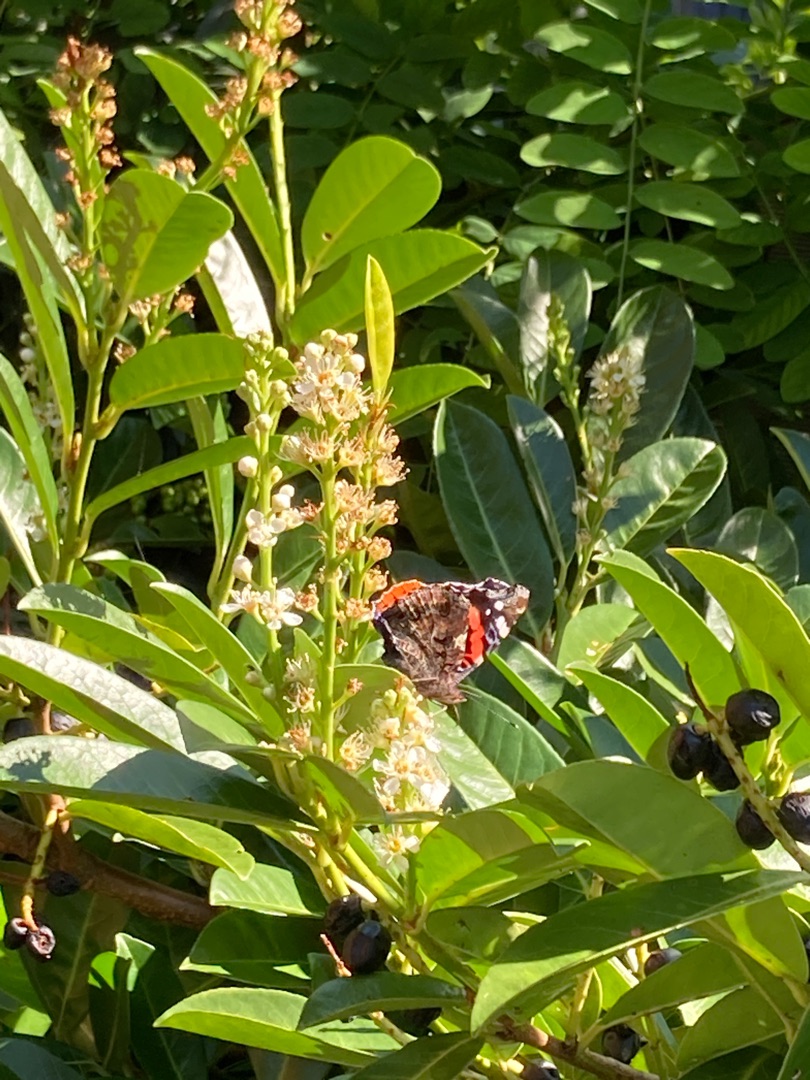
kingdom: Animalia
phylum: Arthropoda
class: Insecta
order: Lepidoptera
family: Nymphalidae
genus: Vanessa
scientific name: Vanessa atalanta
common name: Admiral
